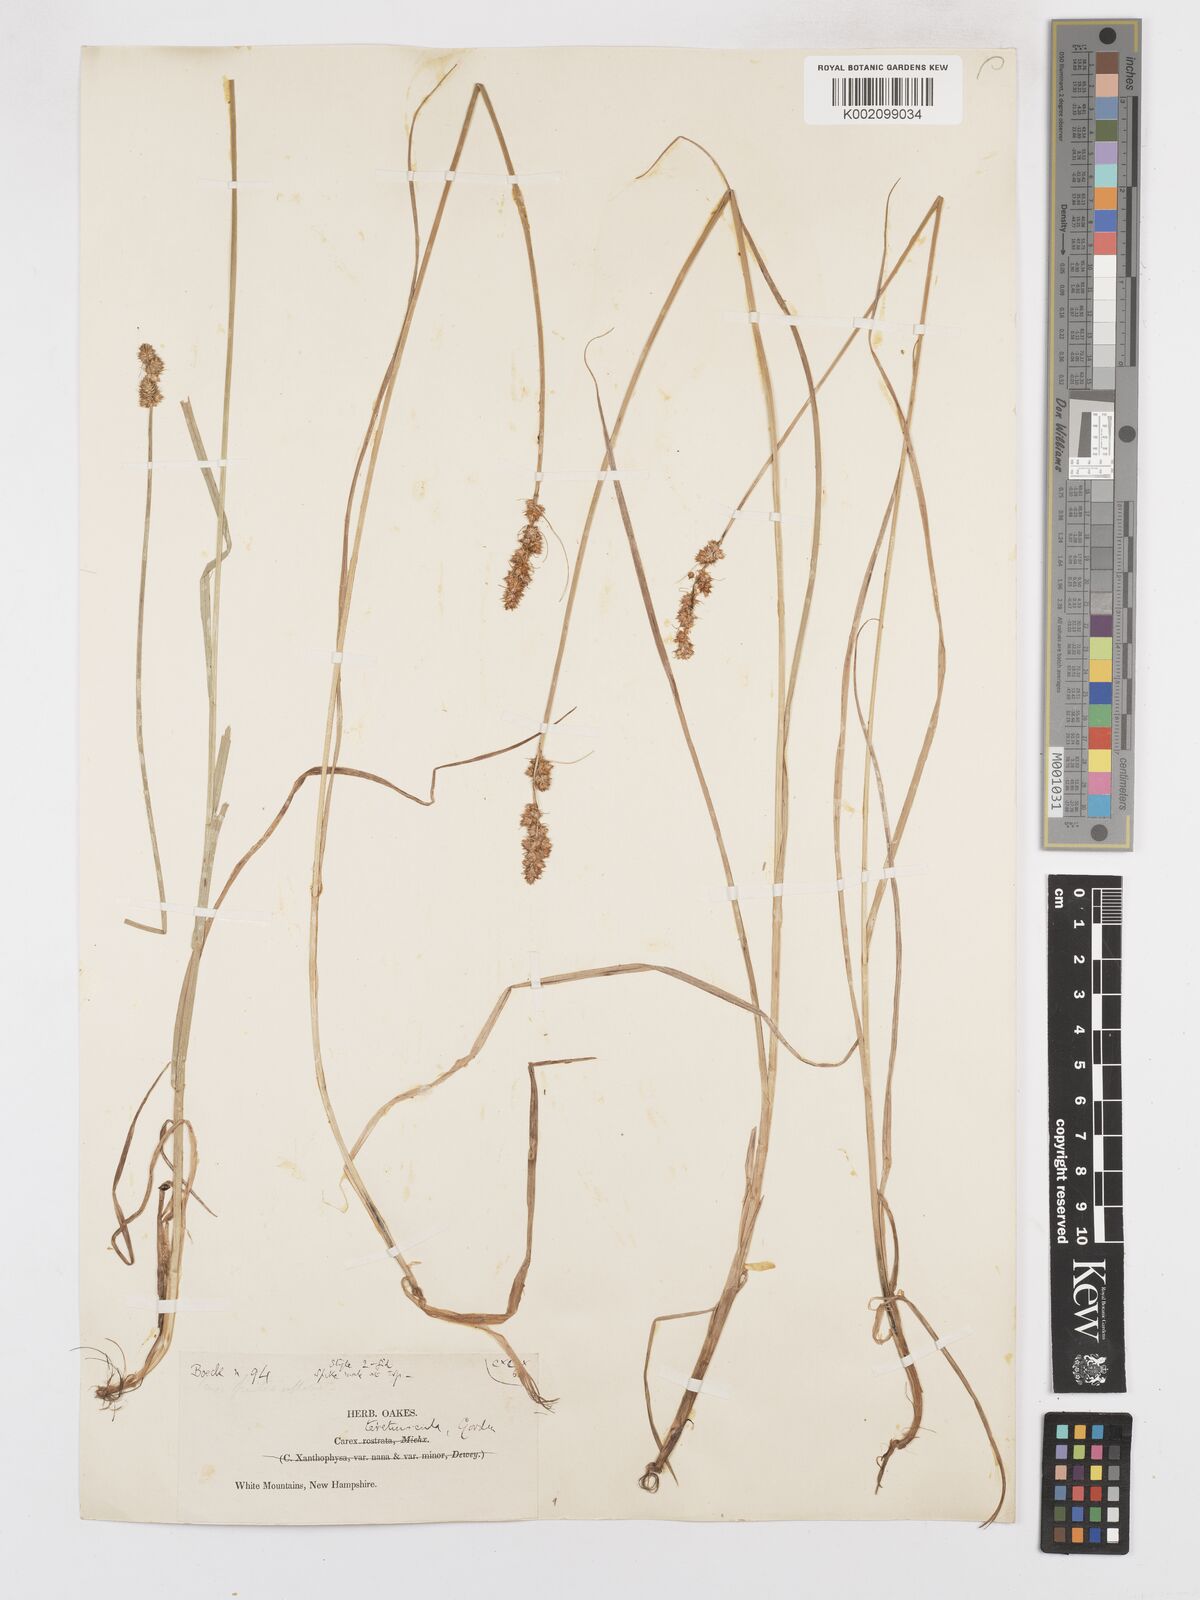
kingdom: Plantae
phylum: Tracheophyta
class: Liliopsida
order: Poales
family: Cyperaceae
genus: Carex
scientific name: Carex diandra
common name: Lesser tussock-sedge
